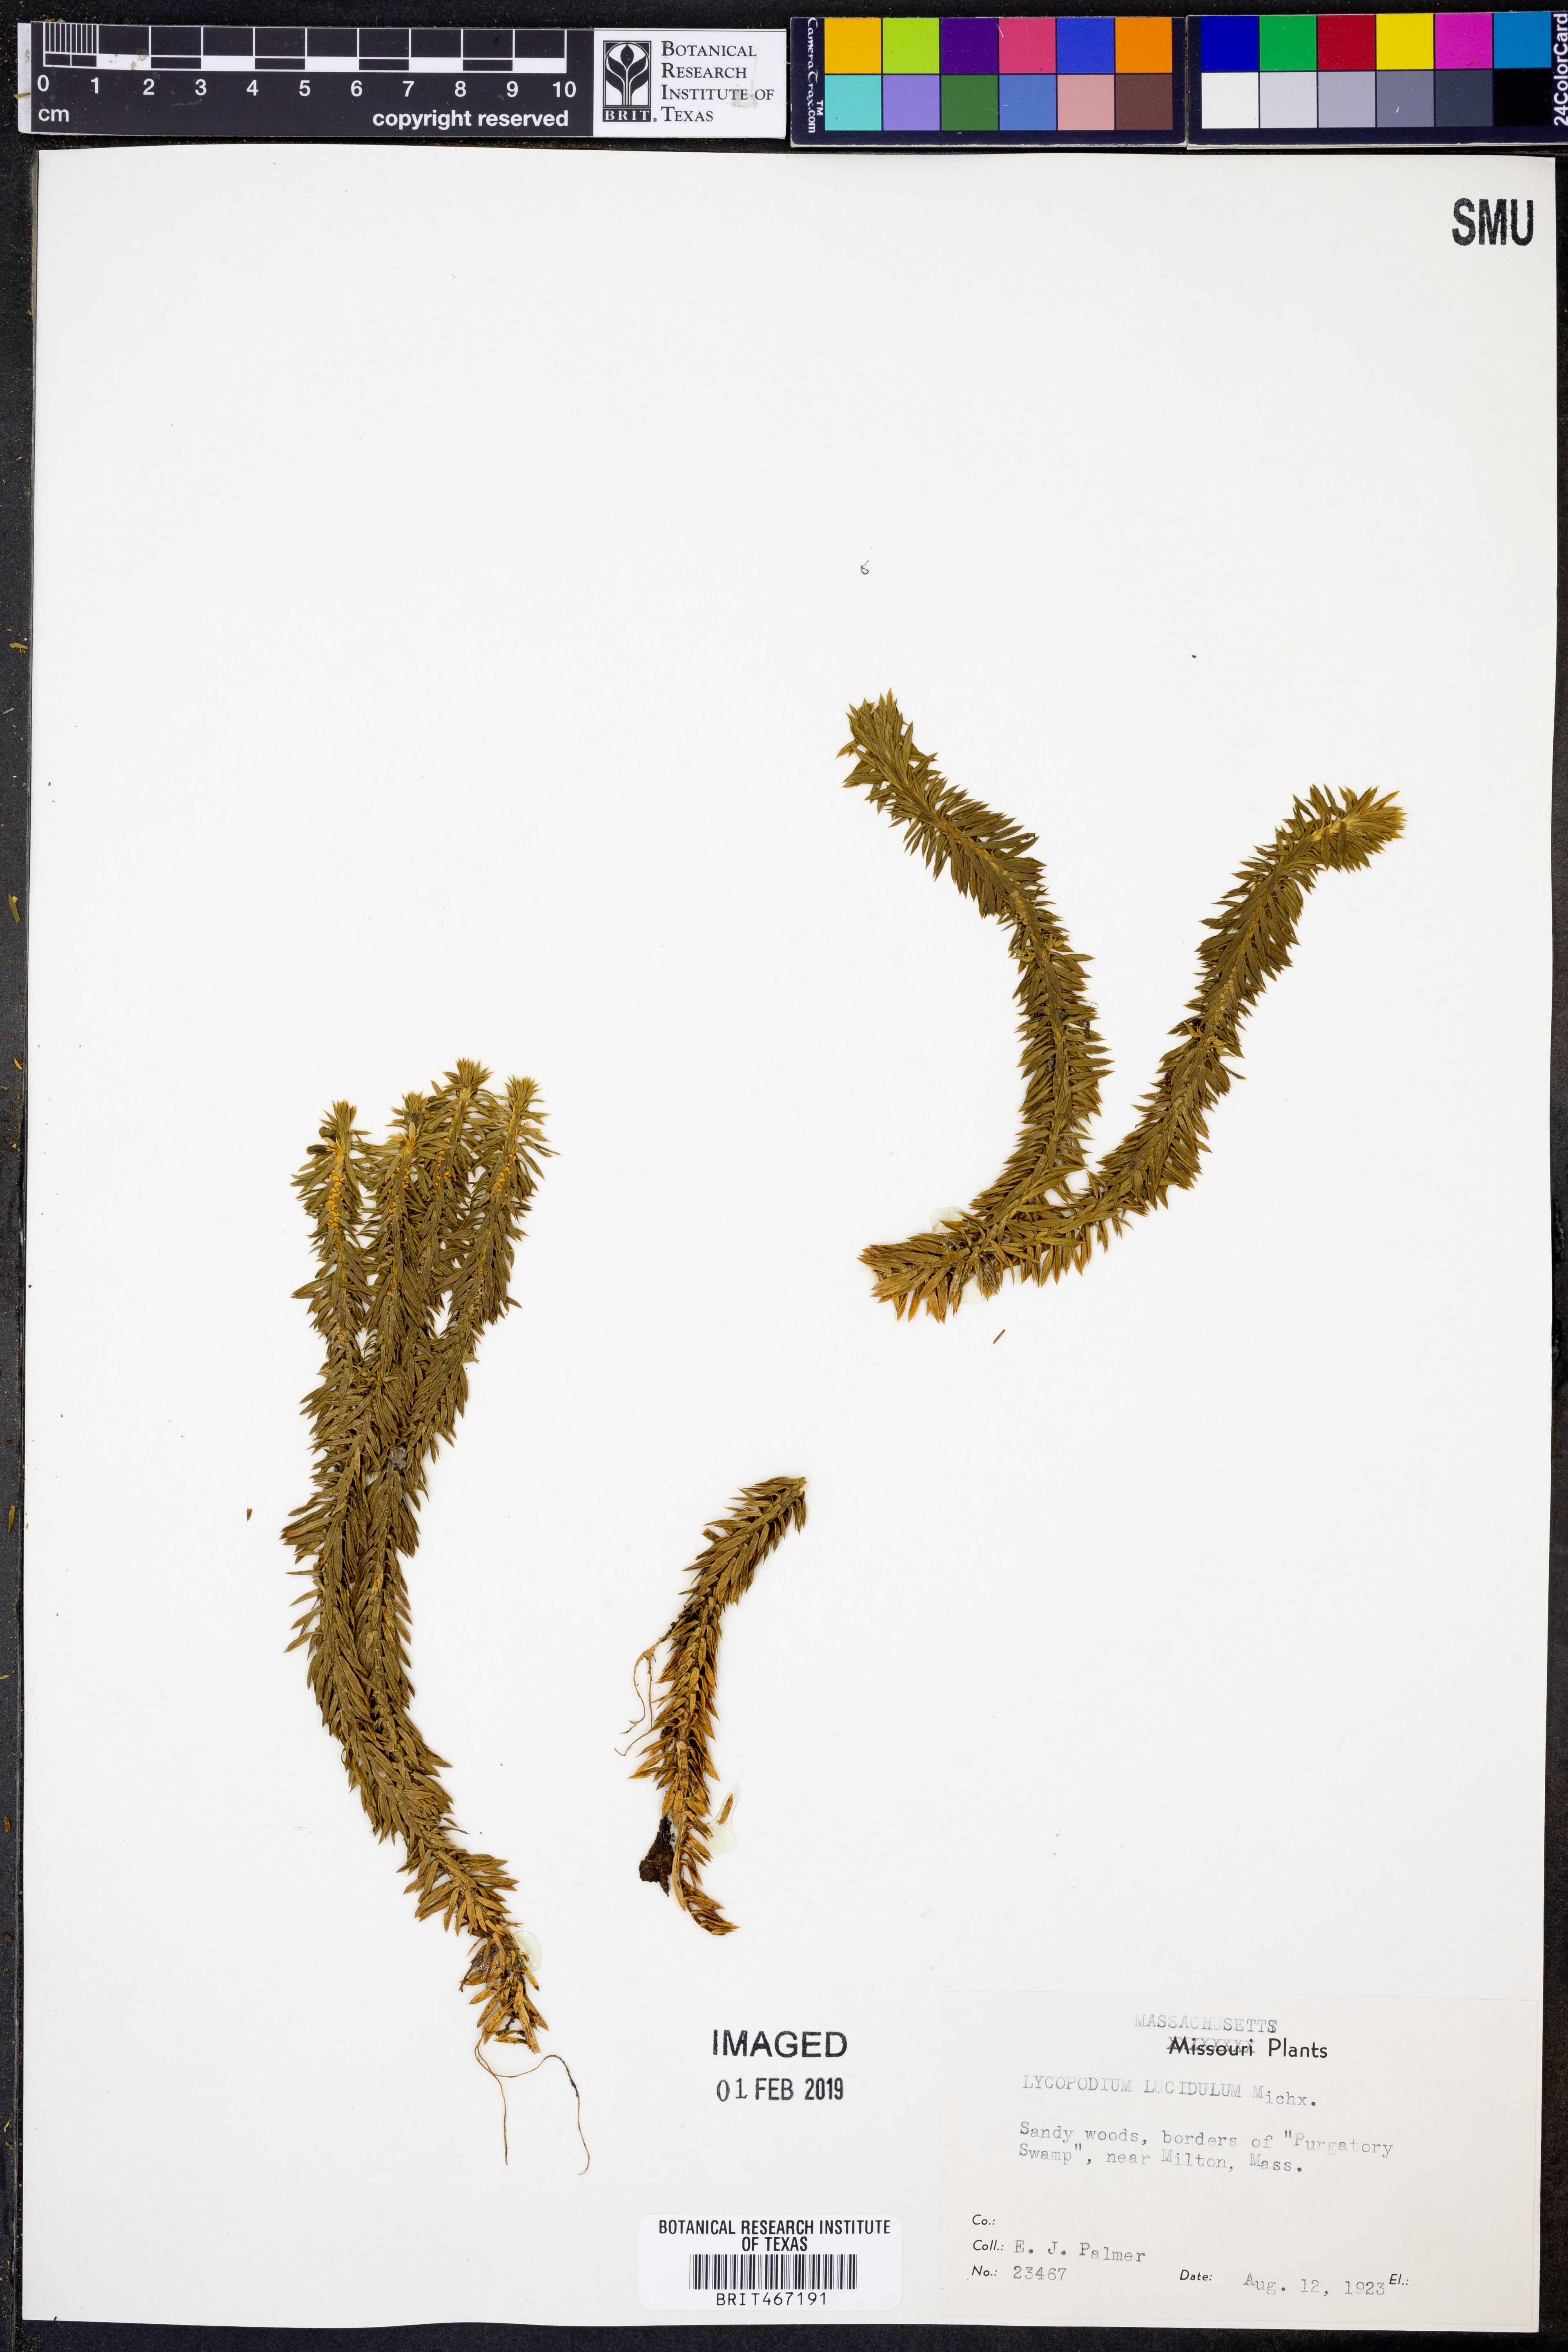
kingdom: Plantae
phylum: Tracheophyta
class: Lycopodiopsida
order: Lycopodiales
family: Lycopodiaceae
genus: Huperzia
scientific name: Huperzia lucidula
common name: Shining clubmoss
